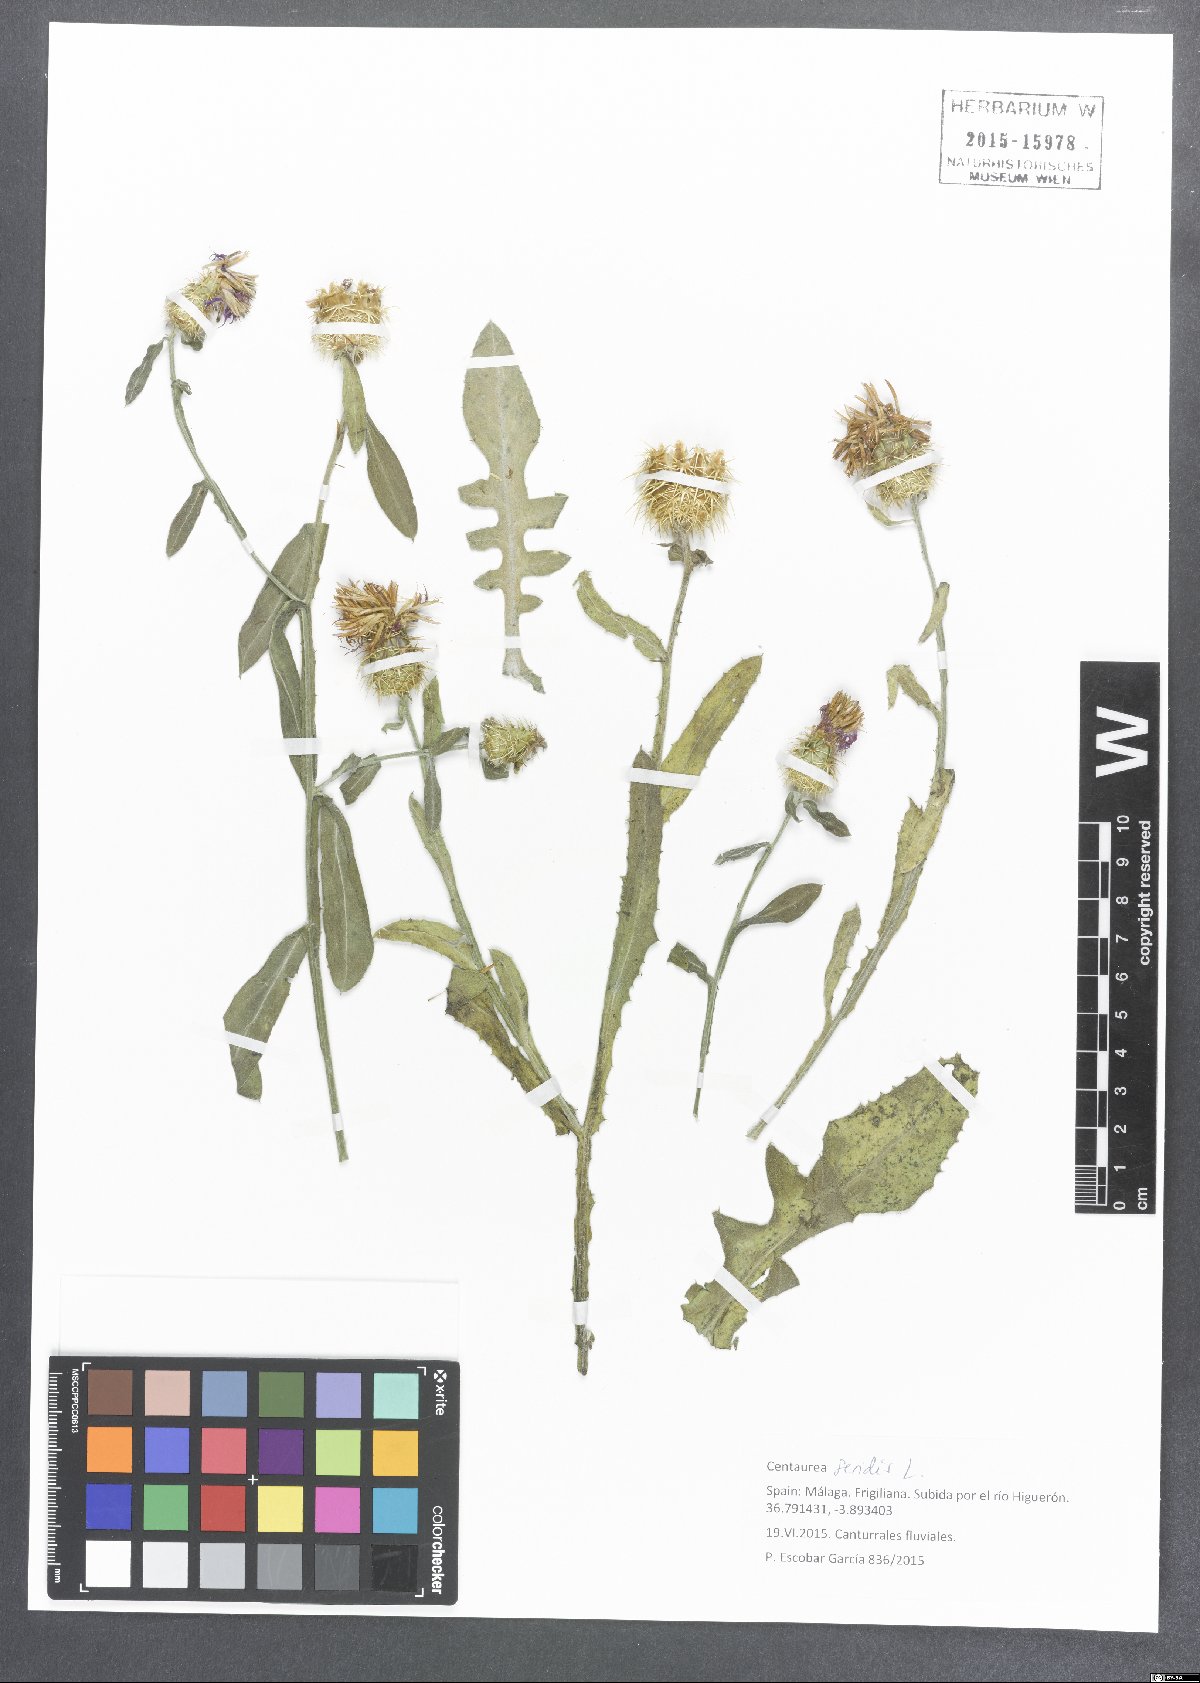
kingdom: Plantae
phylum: Tracheophyta
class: Magnoliopsida
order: Asterales
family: Asteraceae
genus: Centaurea
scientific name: Centaurea seridis
